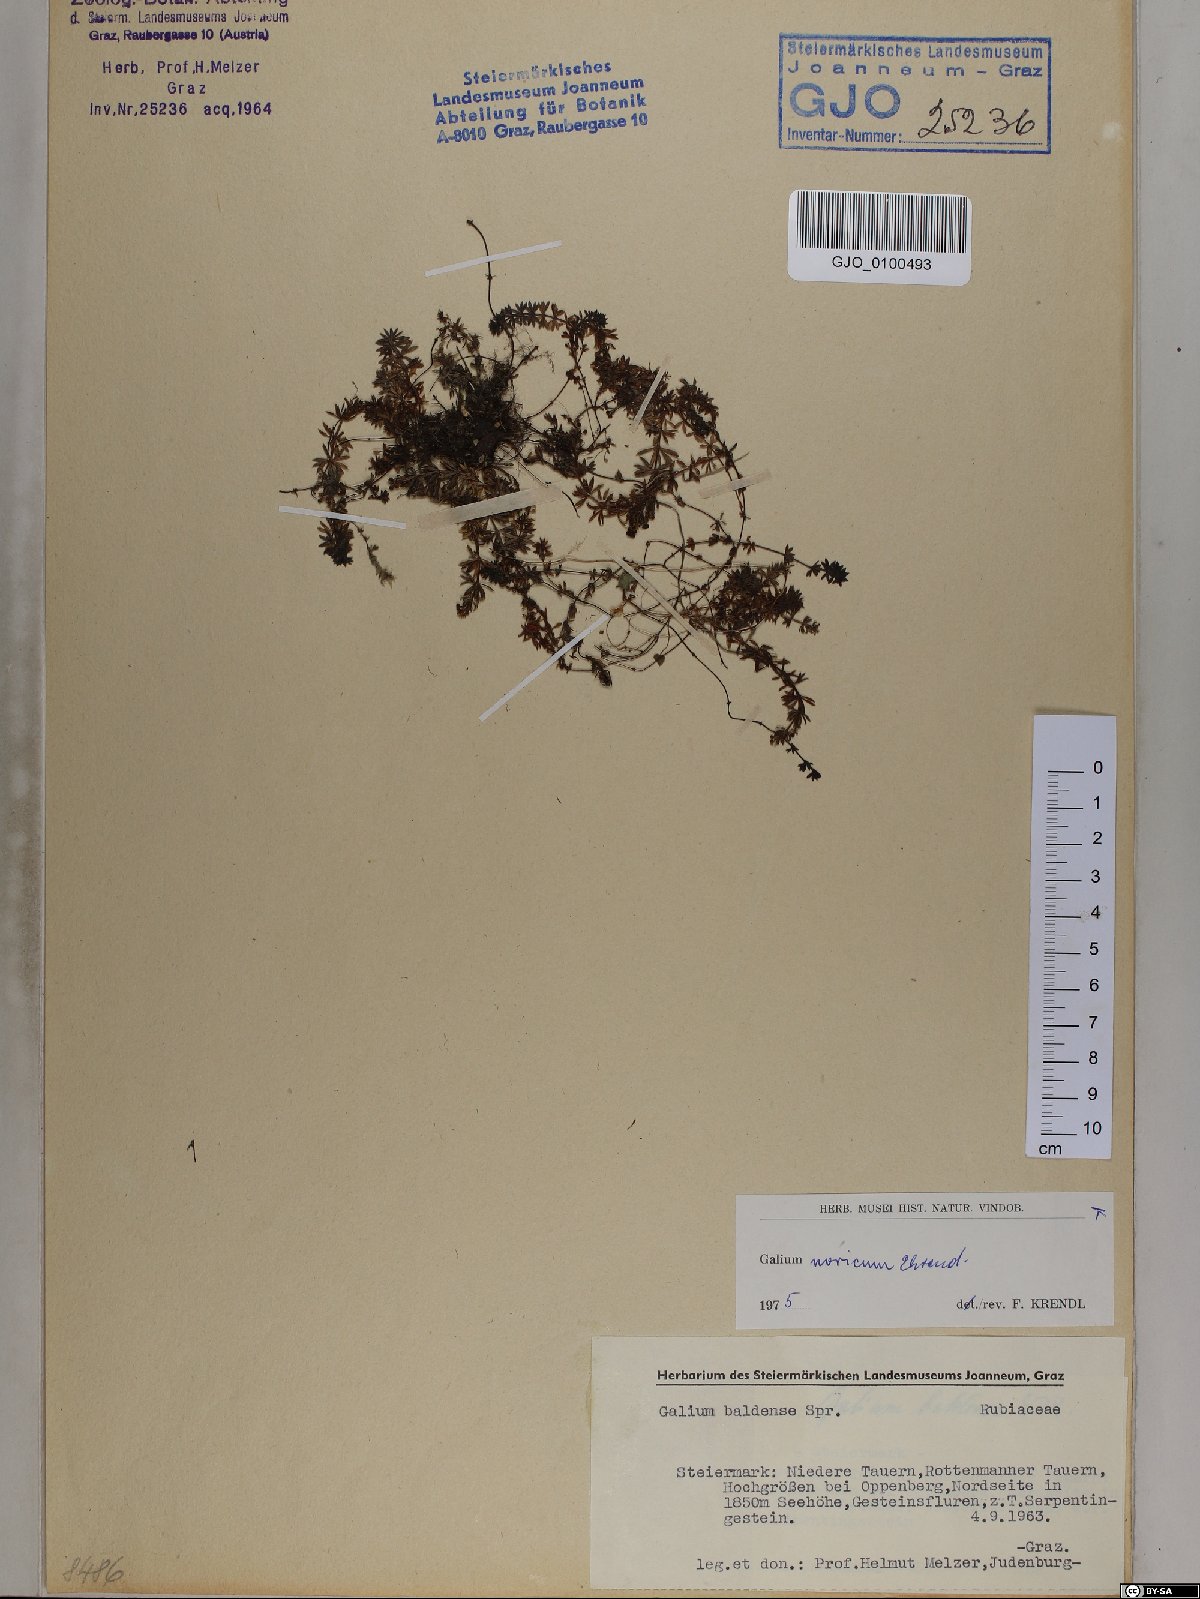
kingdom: Plantae
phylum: Tracheophyta
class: Magnoliopsida
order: Gentianales
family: Rubiaceae
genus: Galium
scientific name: Galium noricum
